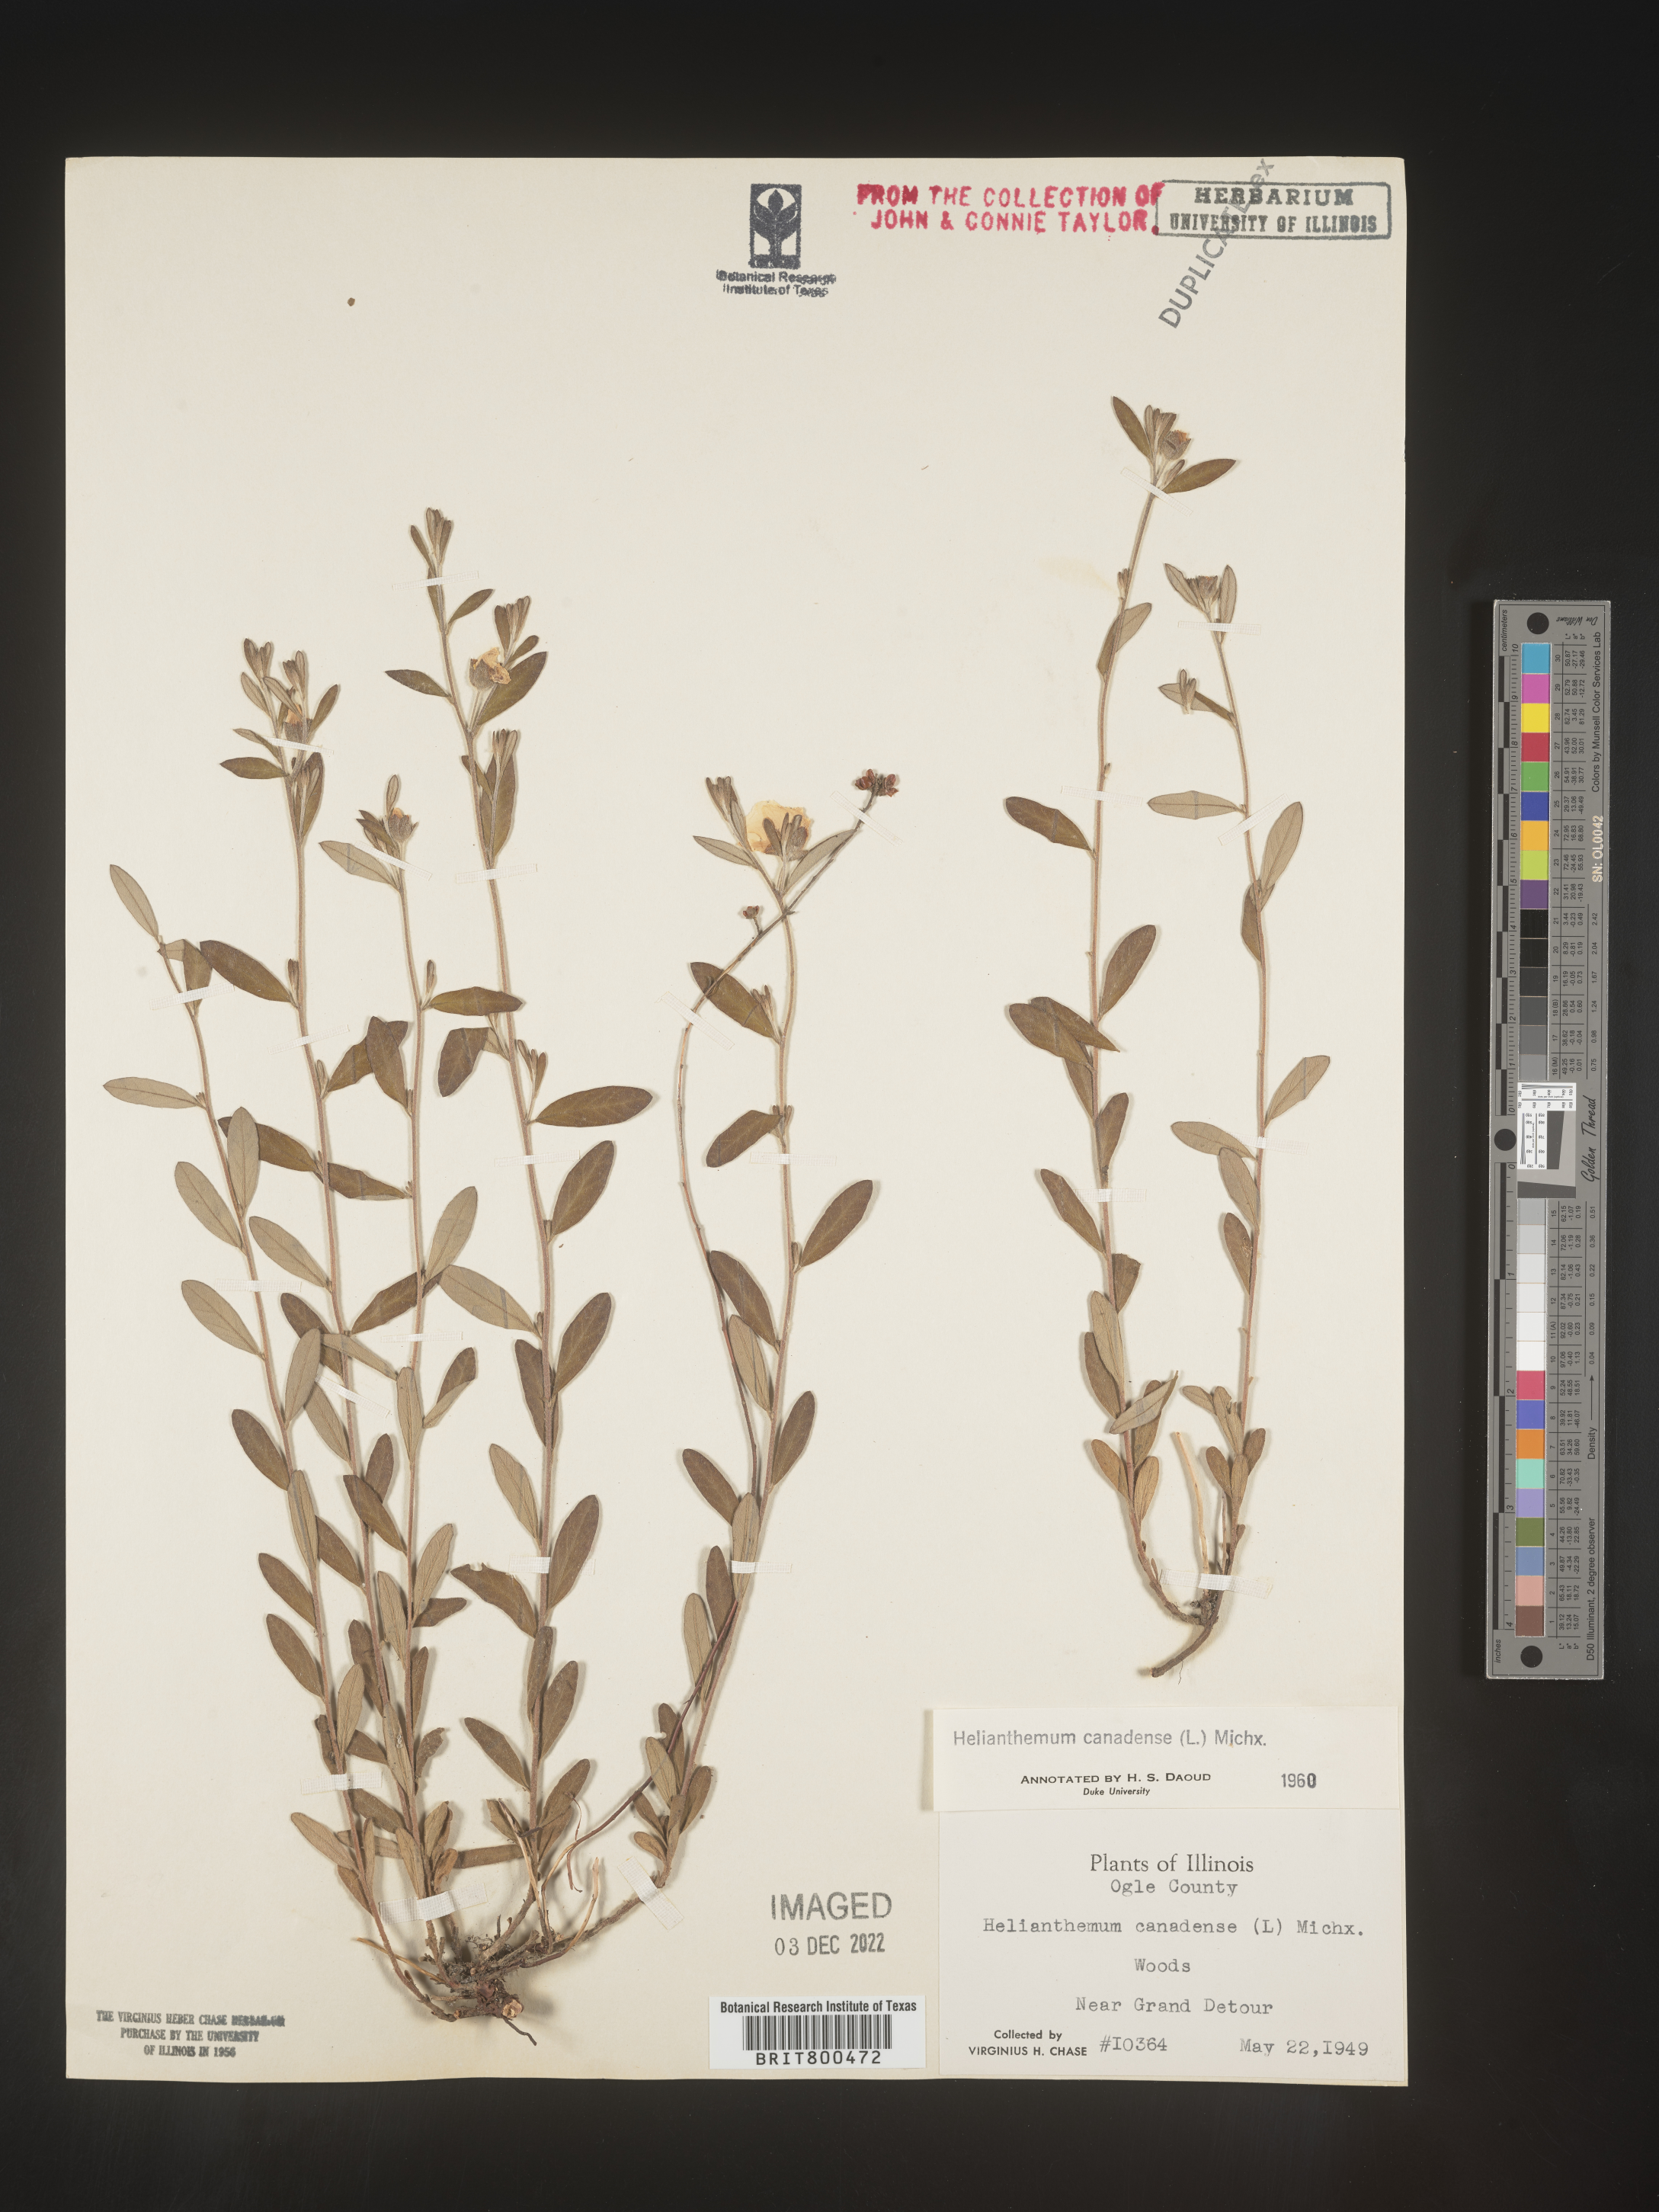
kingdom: Plantae
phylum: Tracheophyta
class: Magnoliopsida
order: Malvales
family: Cistaceae
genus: Crocanthemum
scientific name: Crocanthemum canadense
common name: Canada frostweed
